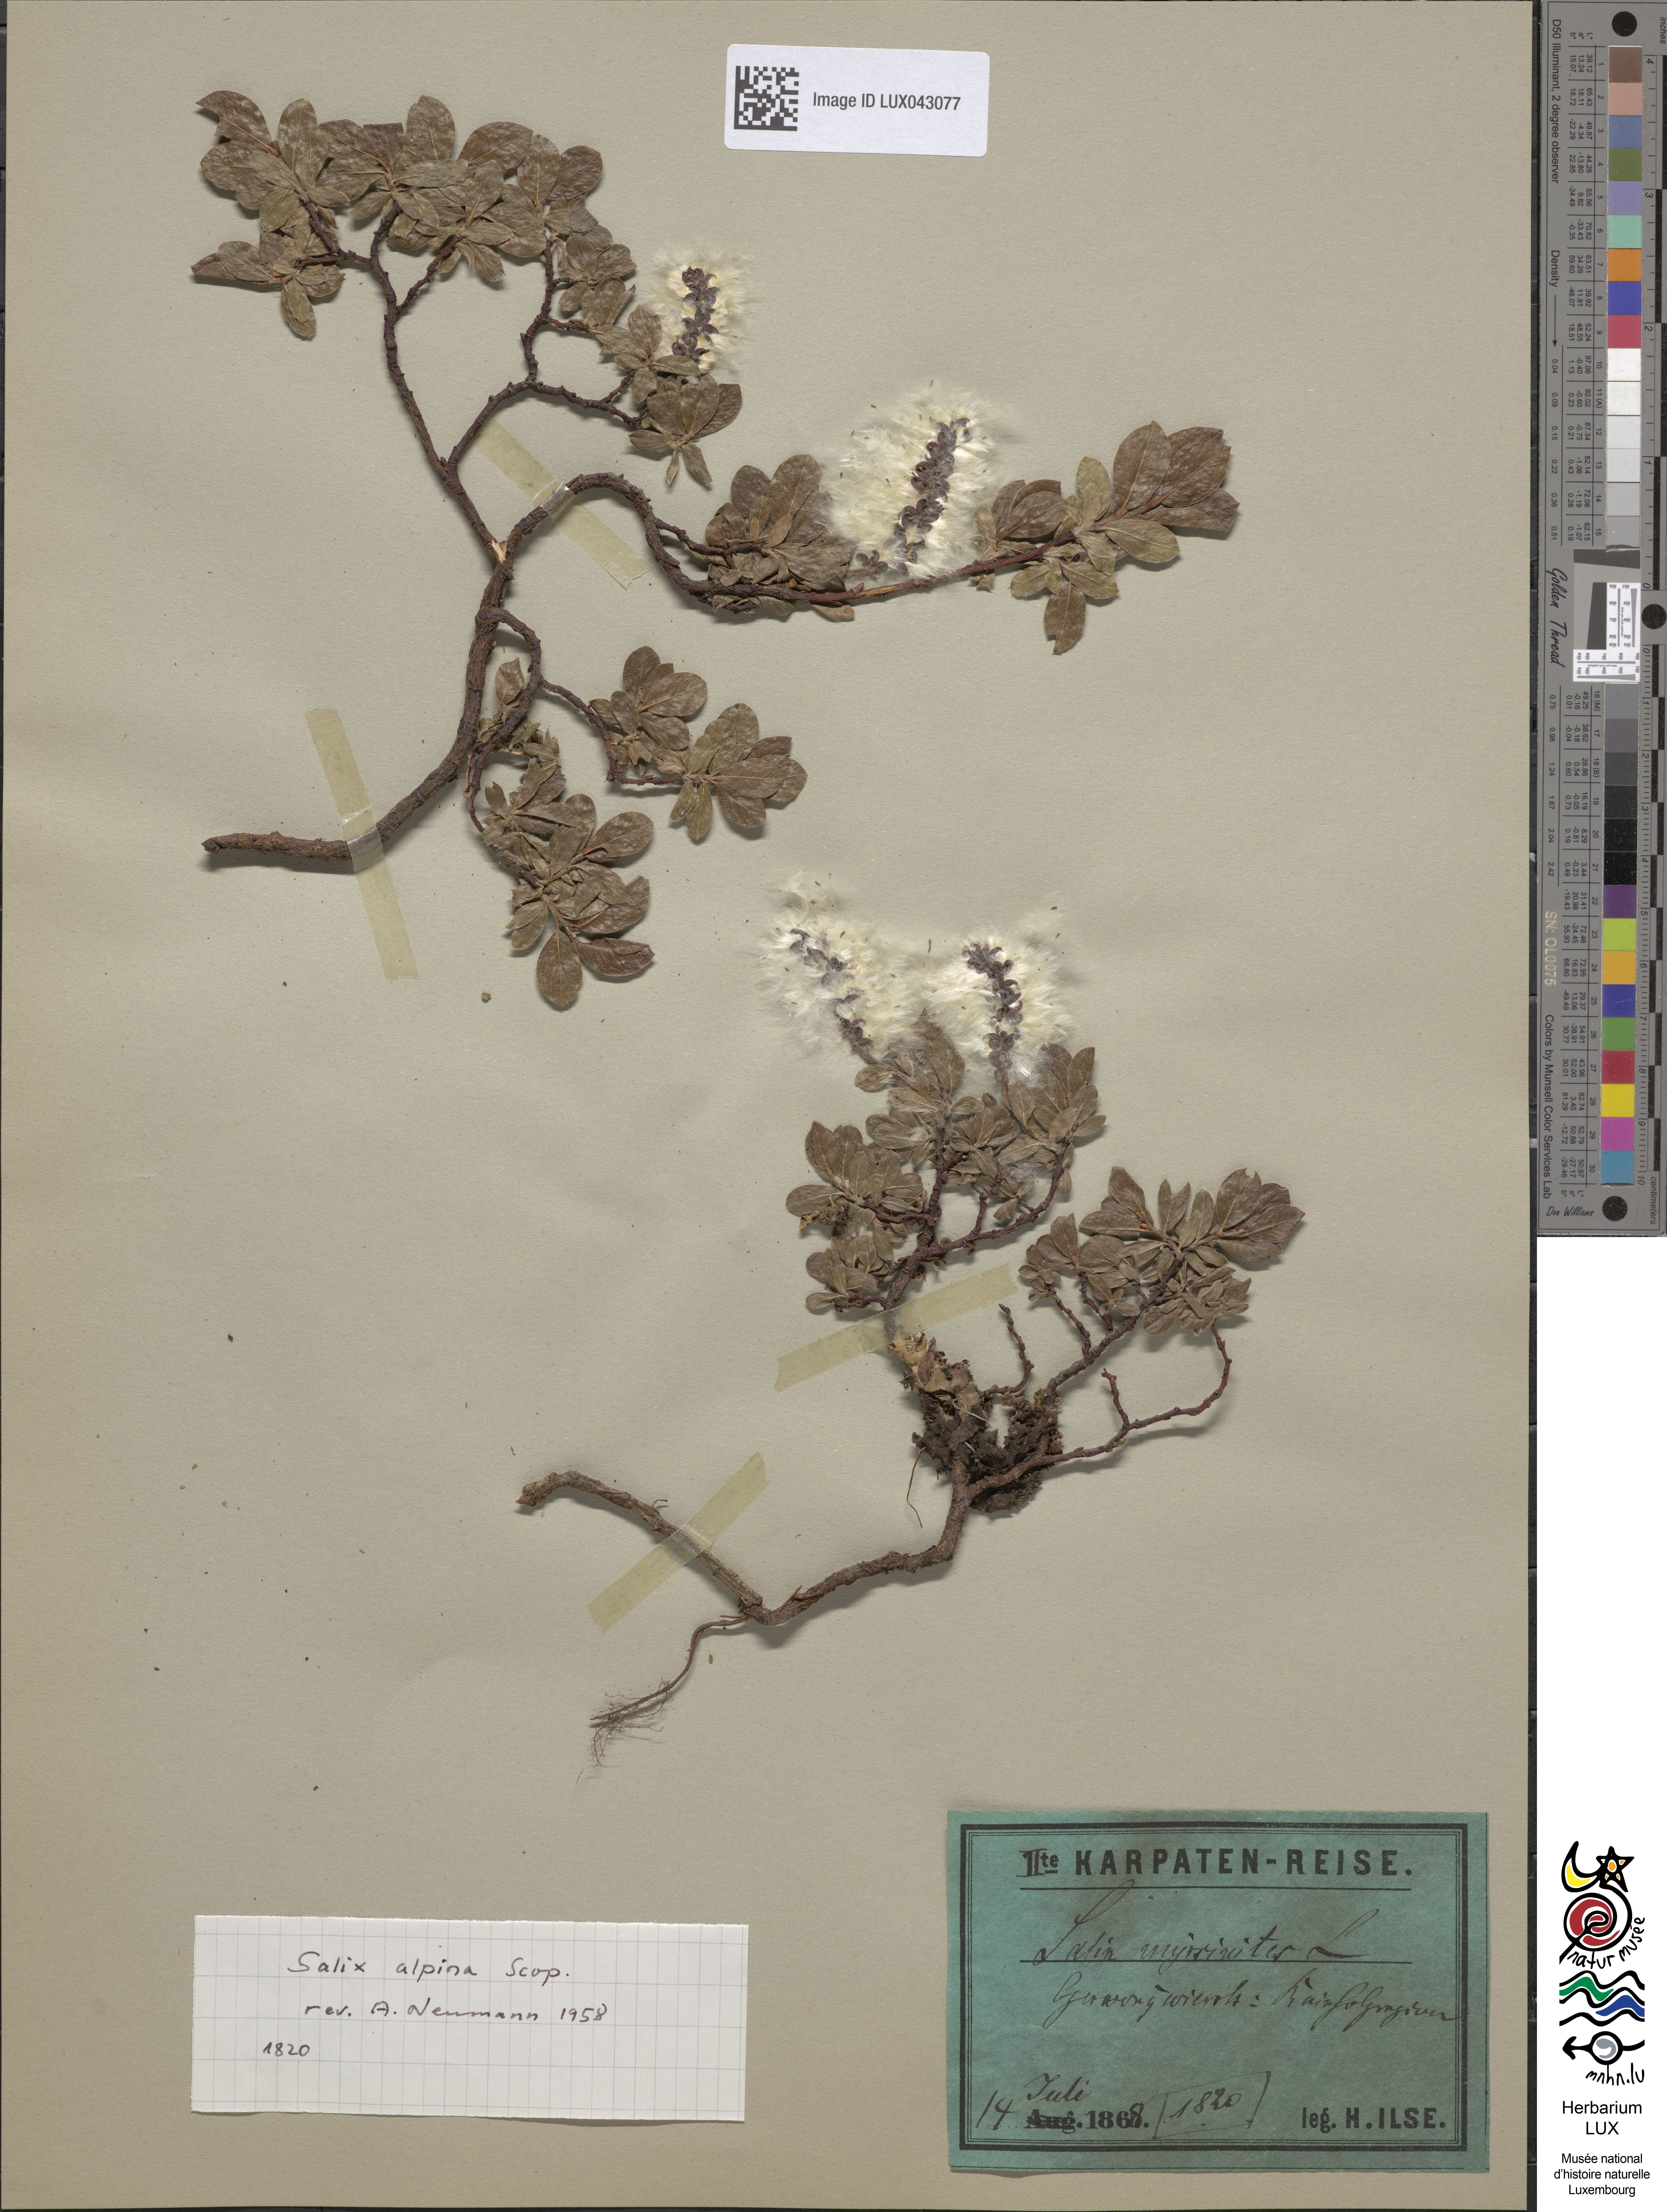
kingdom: Plantae
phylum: Tracheophyta
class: Magnoliopsida
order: Malpighiales
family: Salicaceae
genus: Salix
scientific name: Salix alpina
